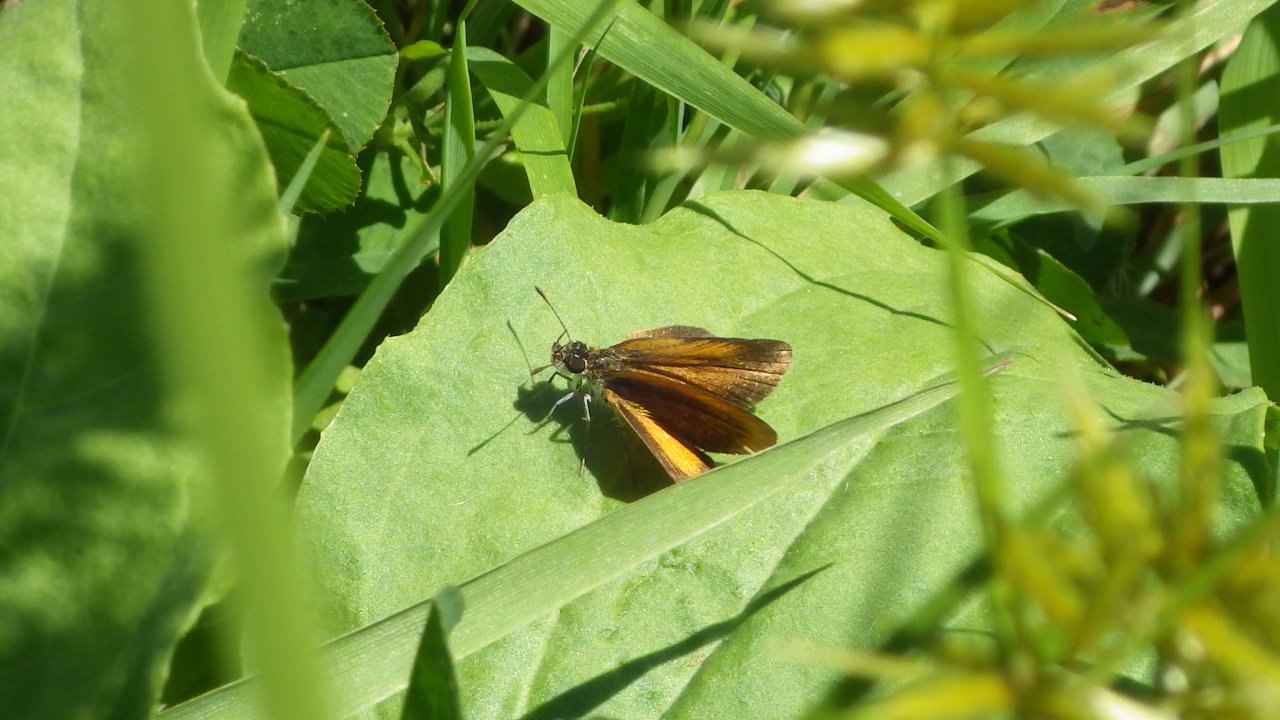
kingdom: Animalia
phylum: Arthropoda
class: Insecta
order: Lepidoptera
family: Hesperiidae
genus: Ancyloxypha
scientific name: Ancyloxypha numitor
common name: Least Skipper
